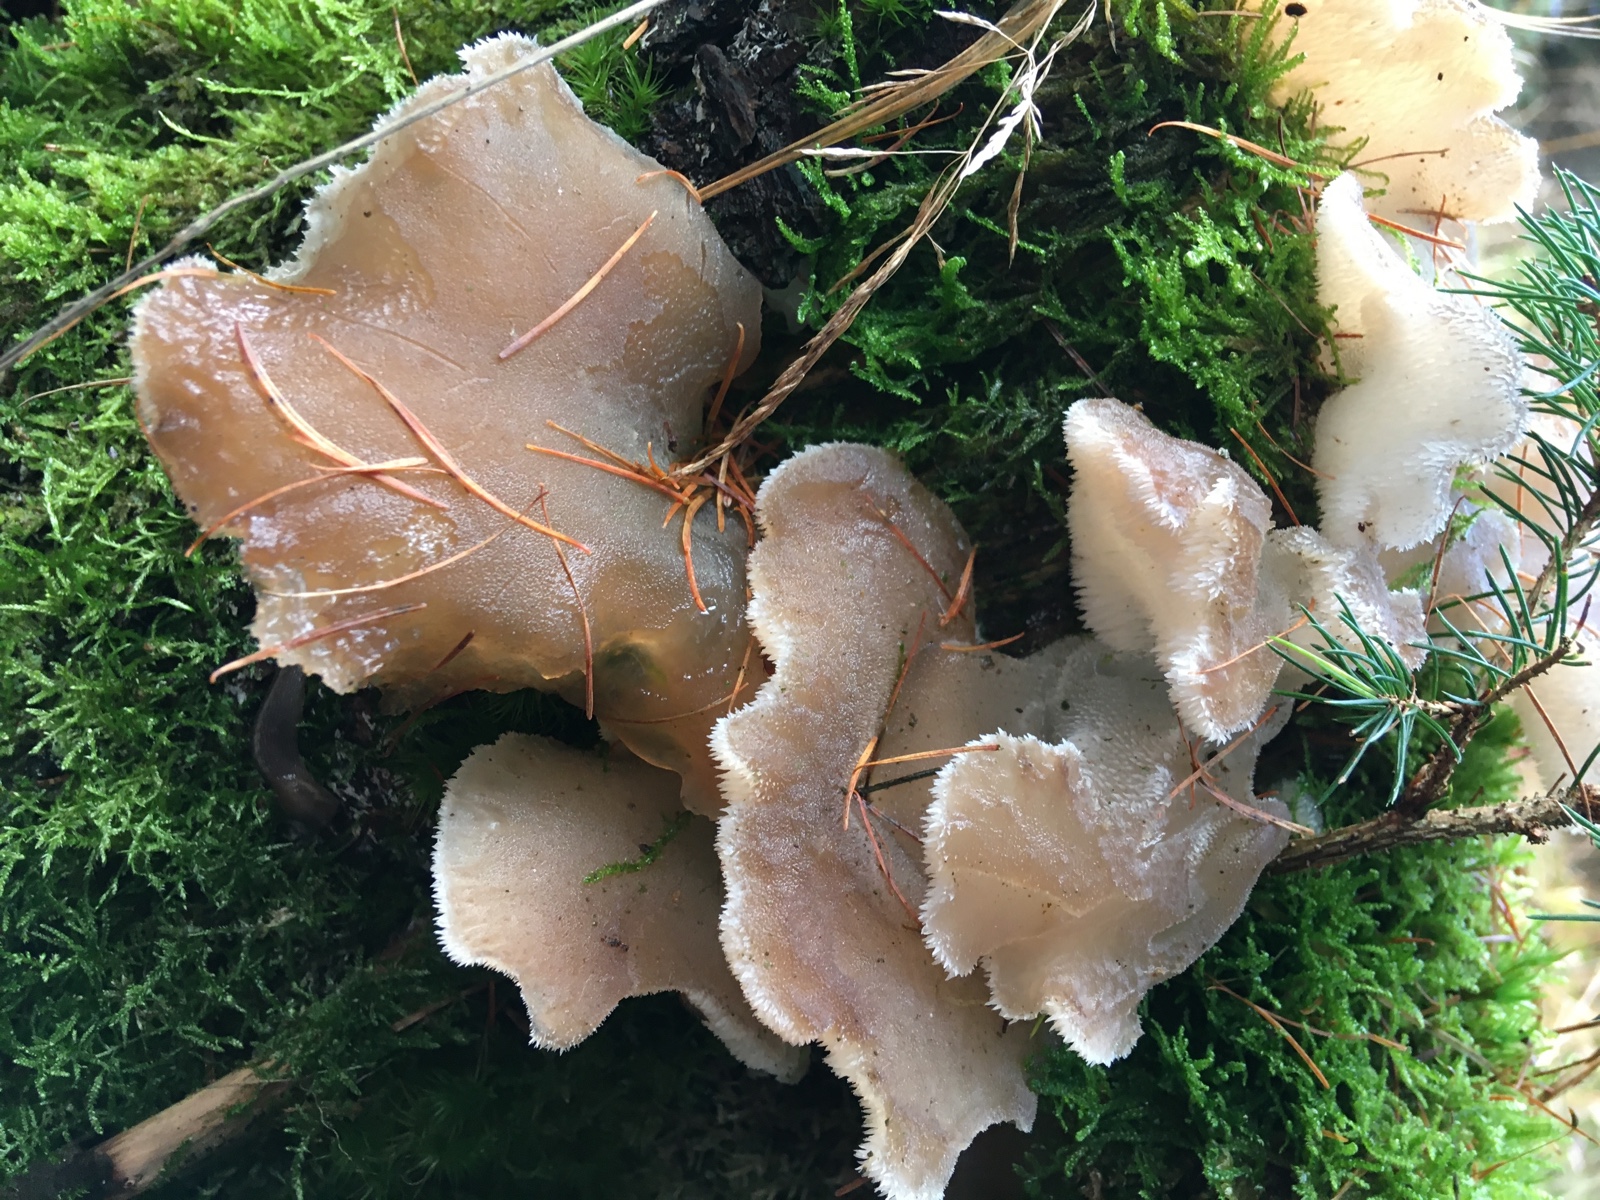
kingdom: Fungi
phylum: Basidiomycota
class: Agaricomycetes
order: Auriculariales
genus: Pseudohydnum
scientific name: Pseudohydnum gelatinosum
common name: bævretand
